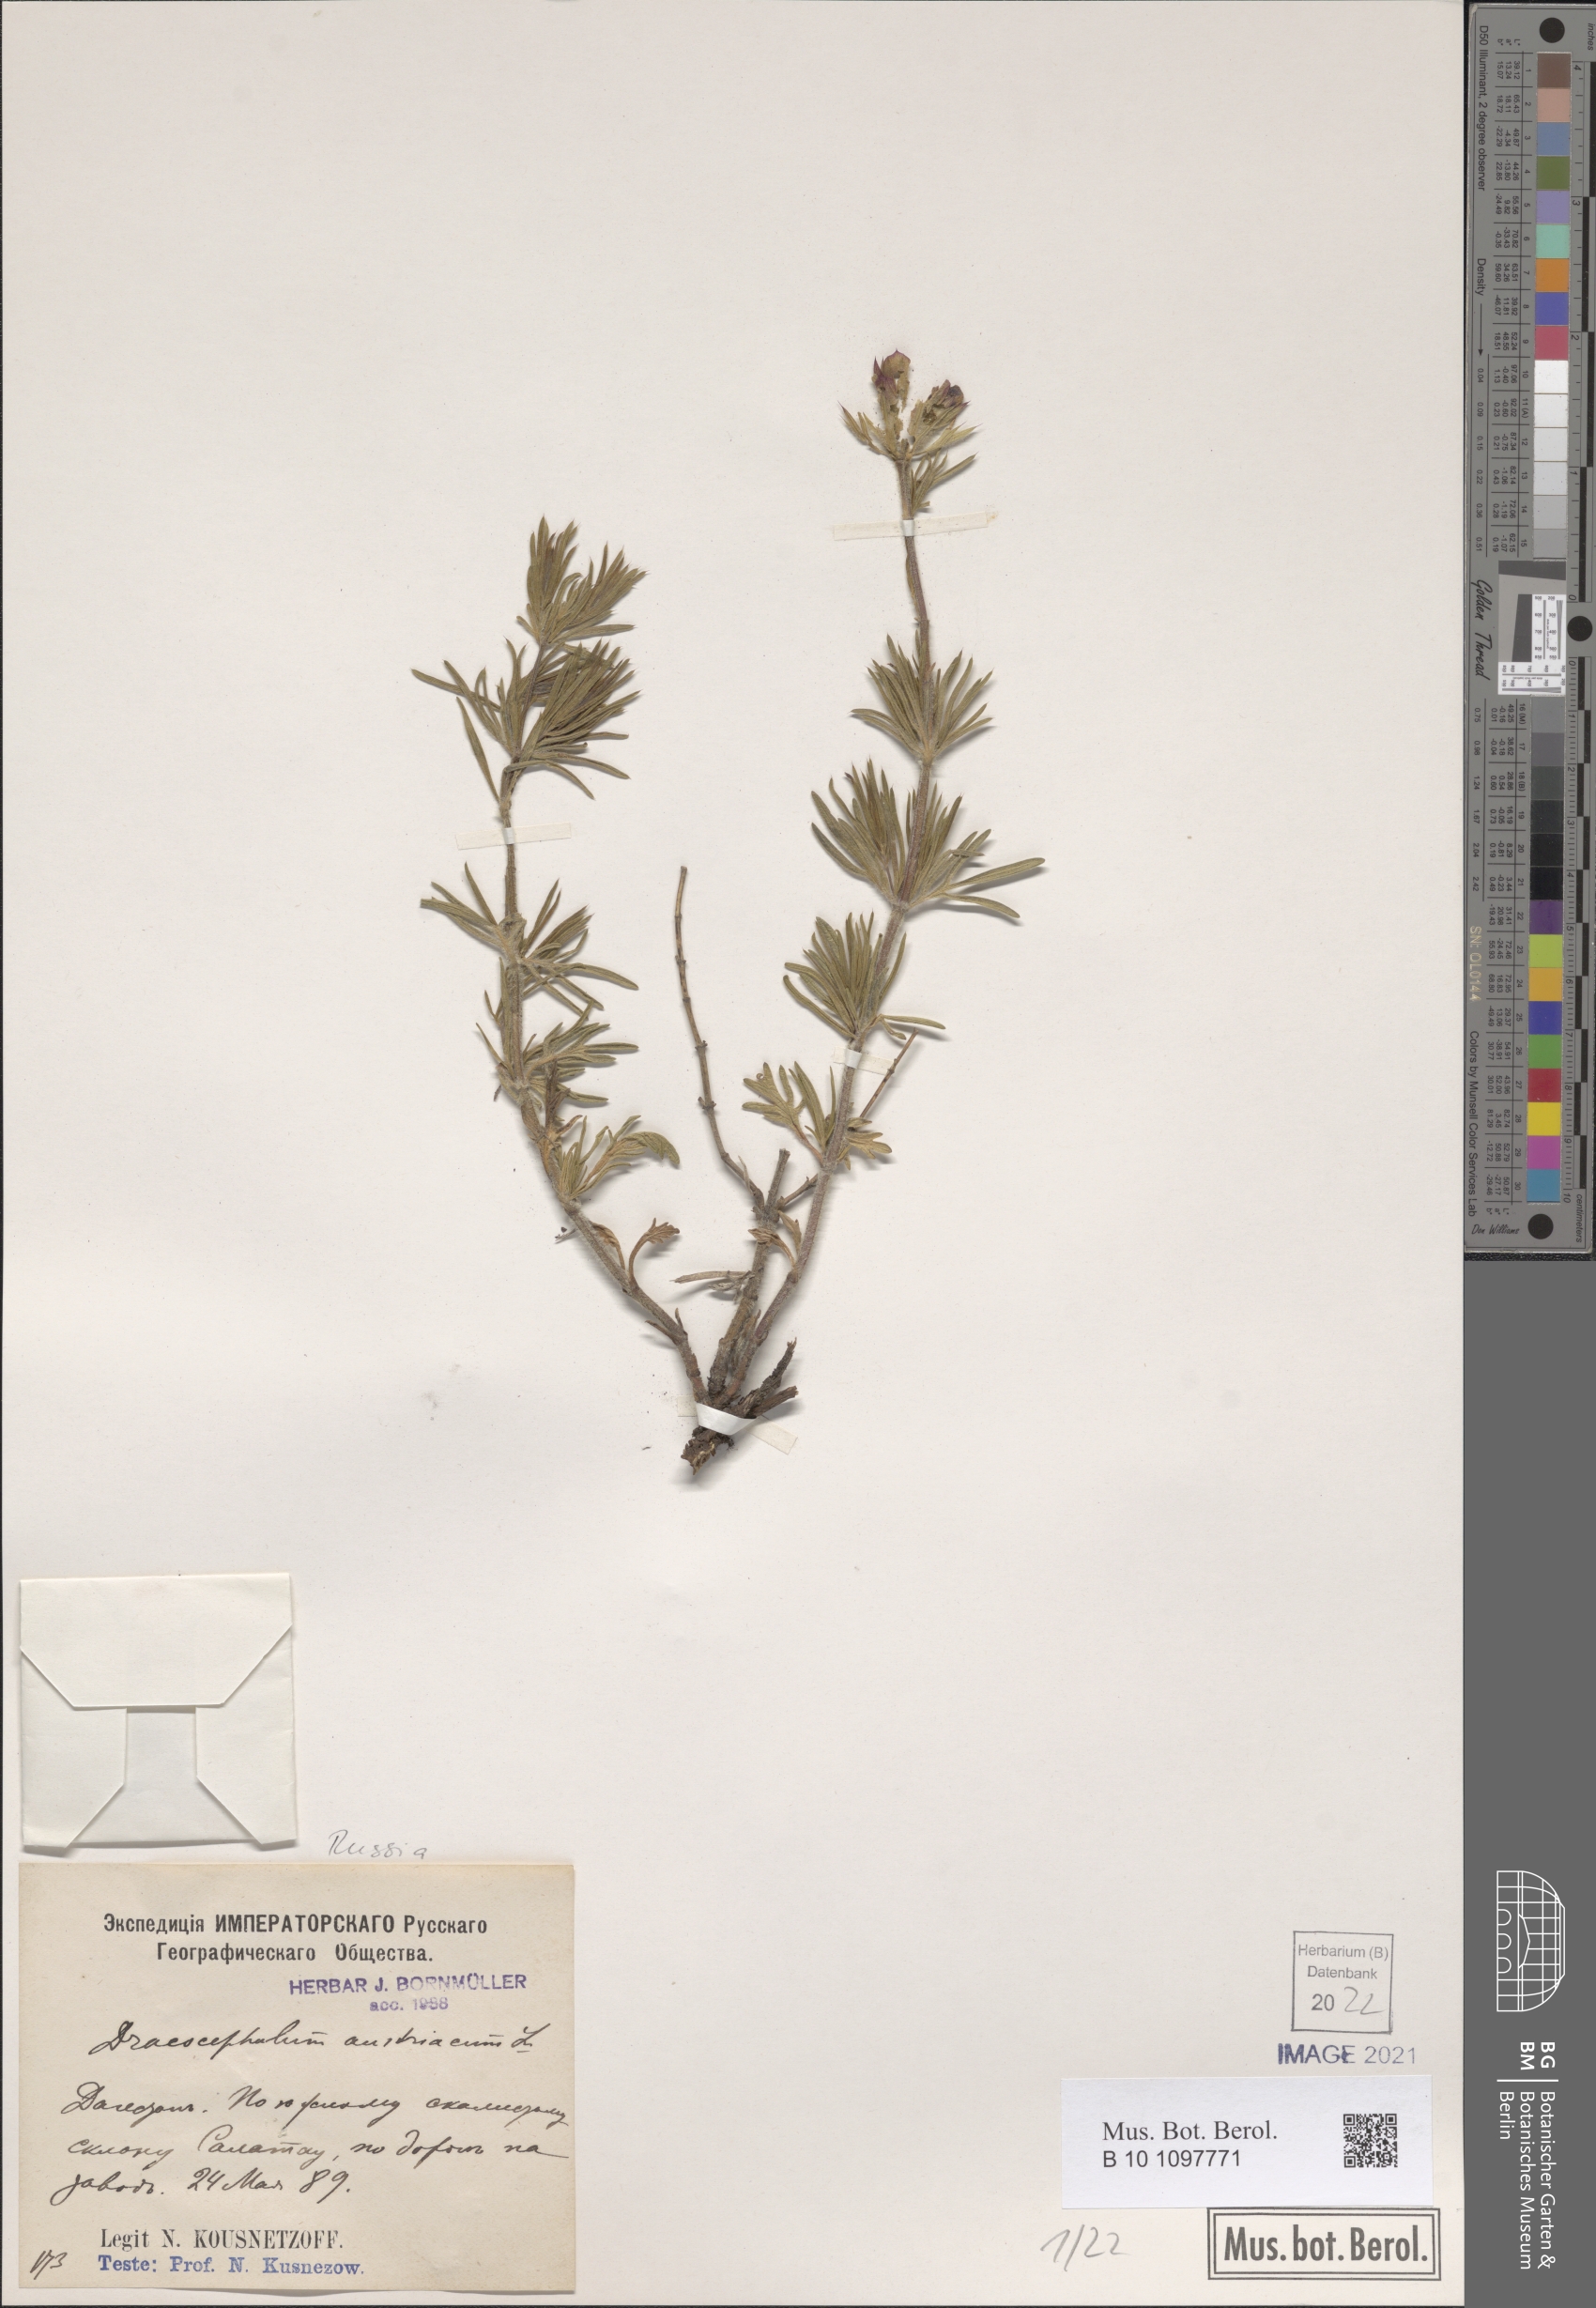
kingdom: Plantae
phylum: Tracheophyta
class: Magnoliopsida
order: Lamiales
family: Lamiaceae
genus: Dracocephalum
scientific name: Dracocephalum austriacum
